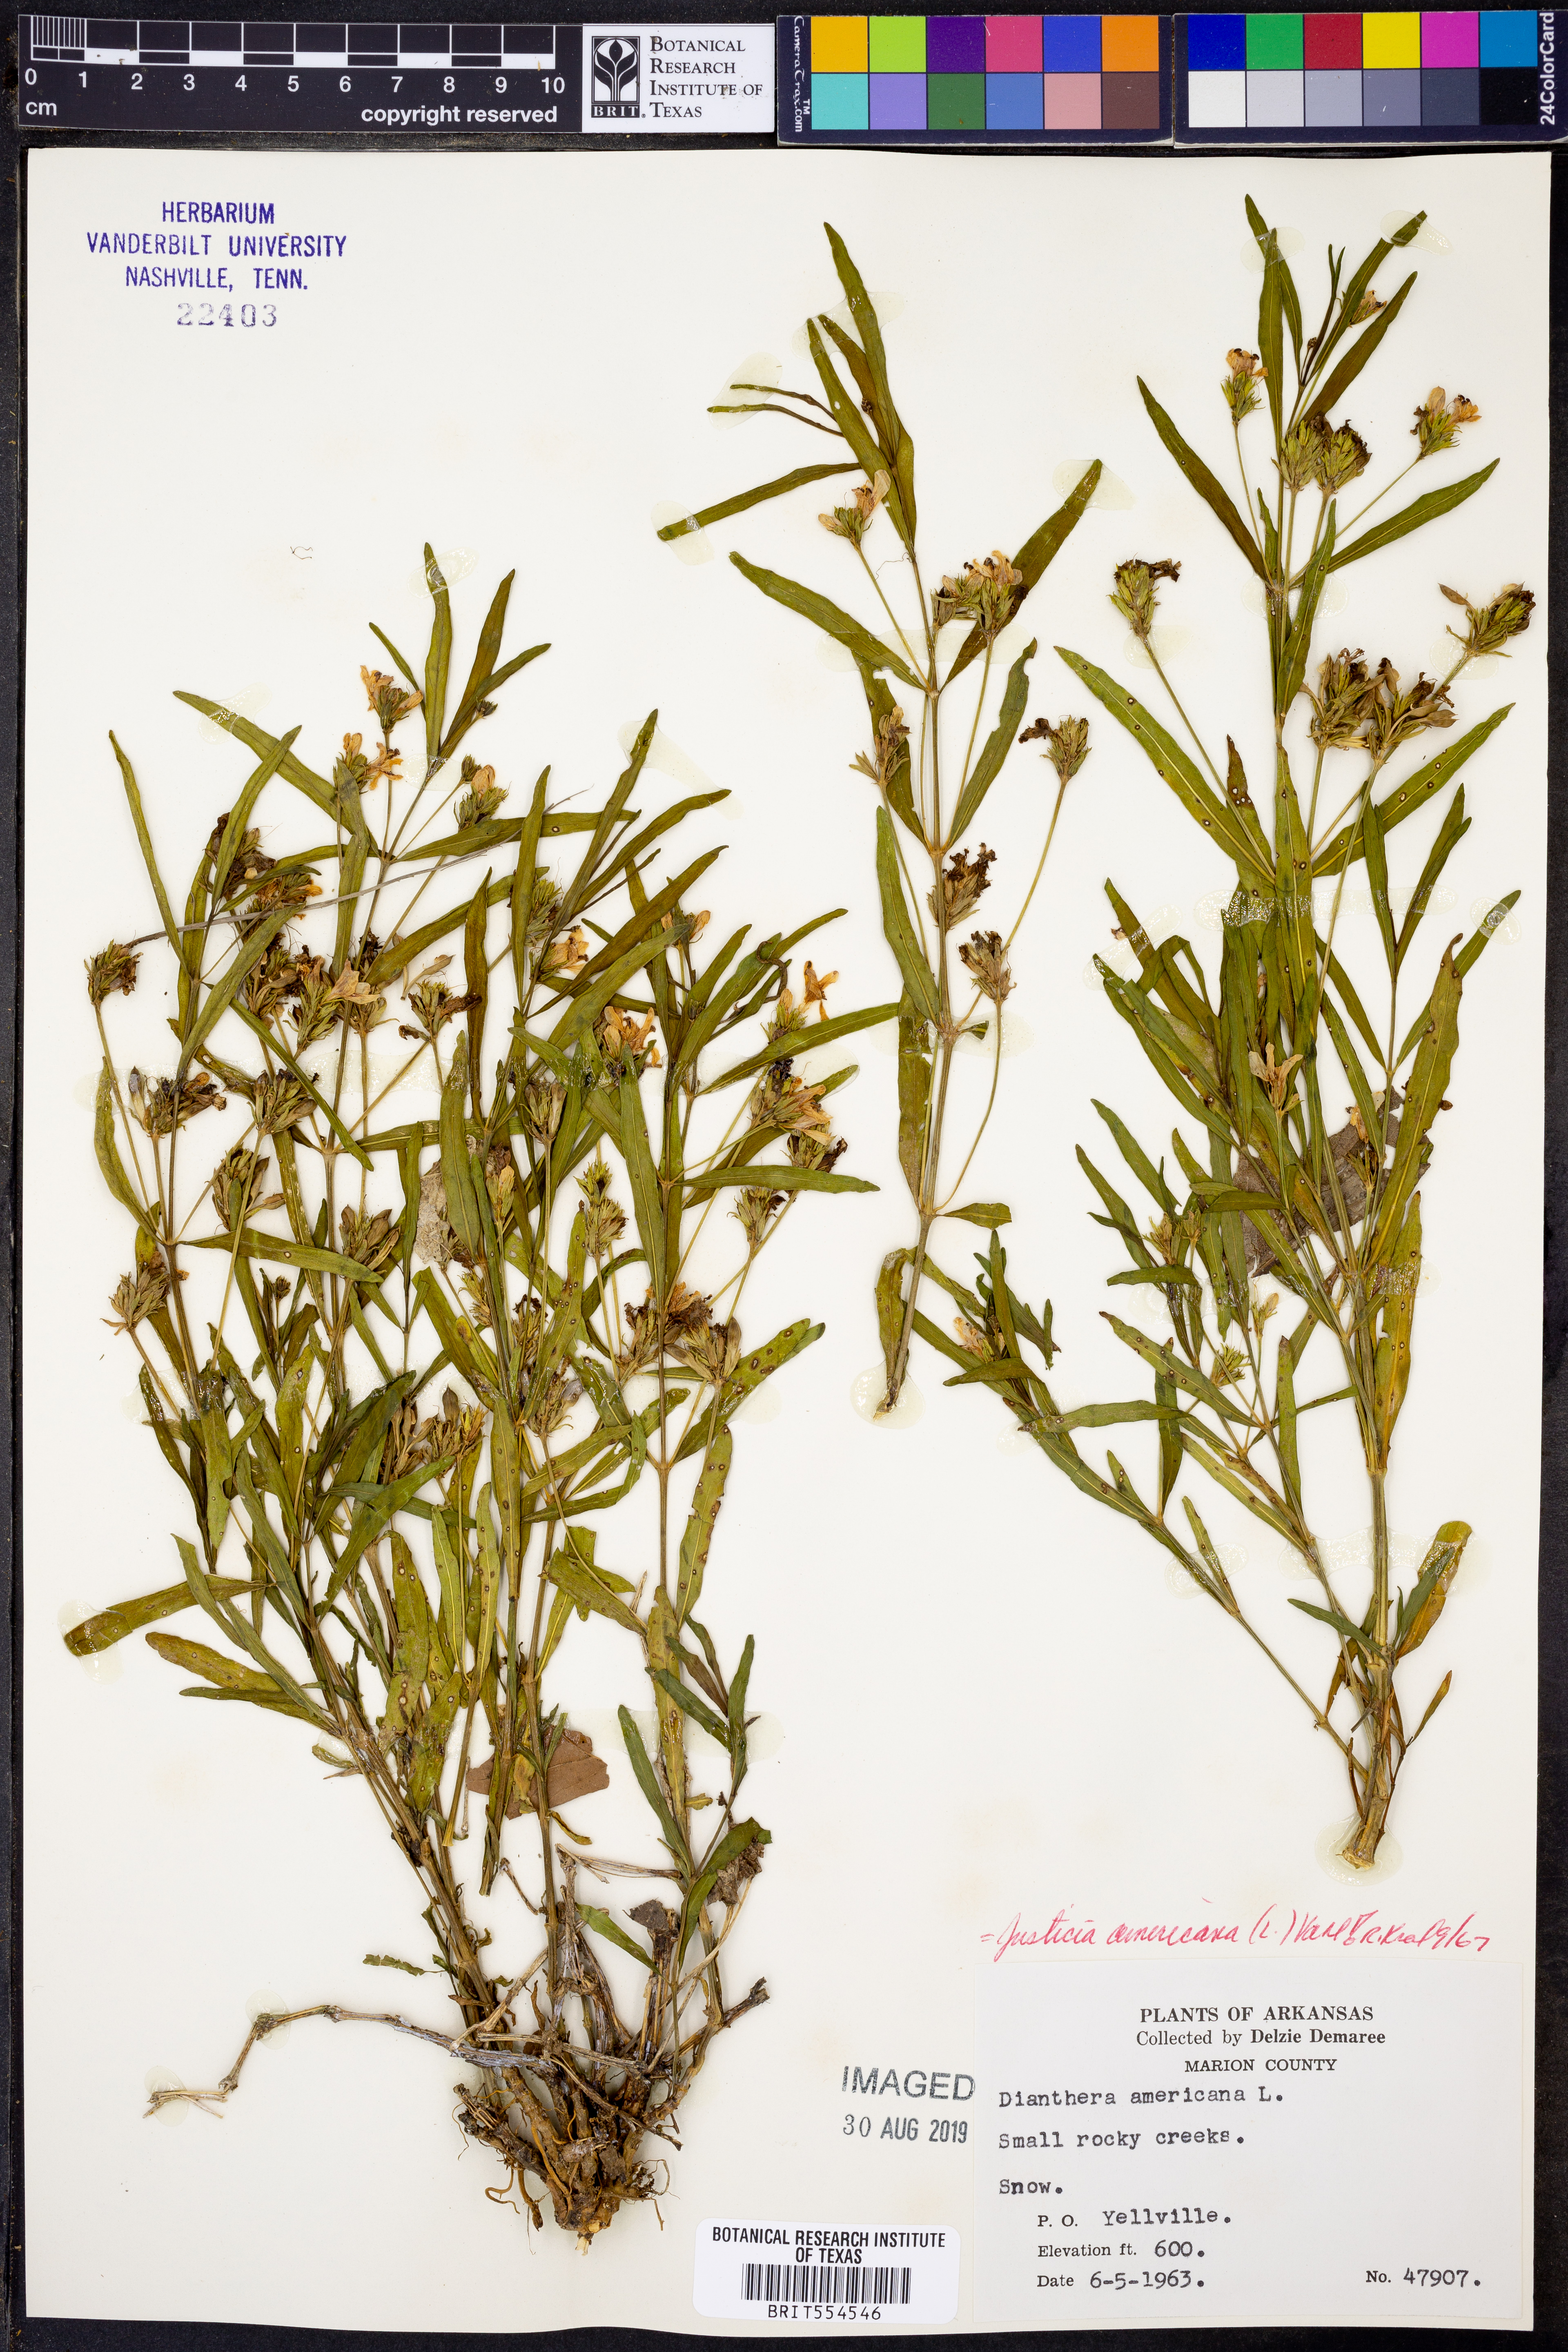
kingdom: Plantae
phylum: Tracheophyta
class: Magnoliopsida
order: Lamiales
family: Acanthaceae
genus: Dianthera
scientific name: Dianthera americana
